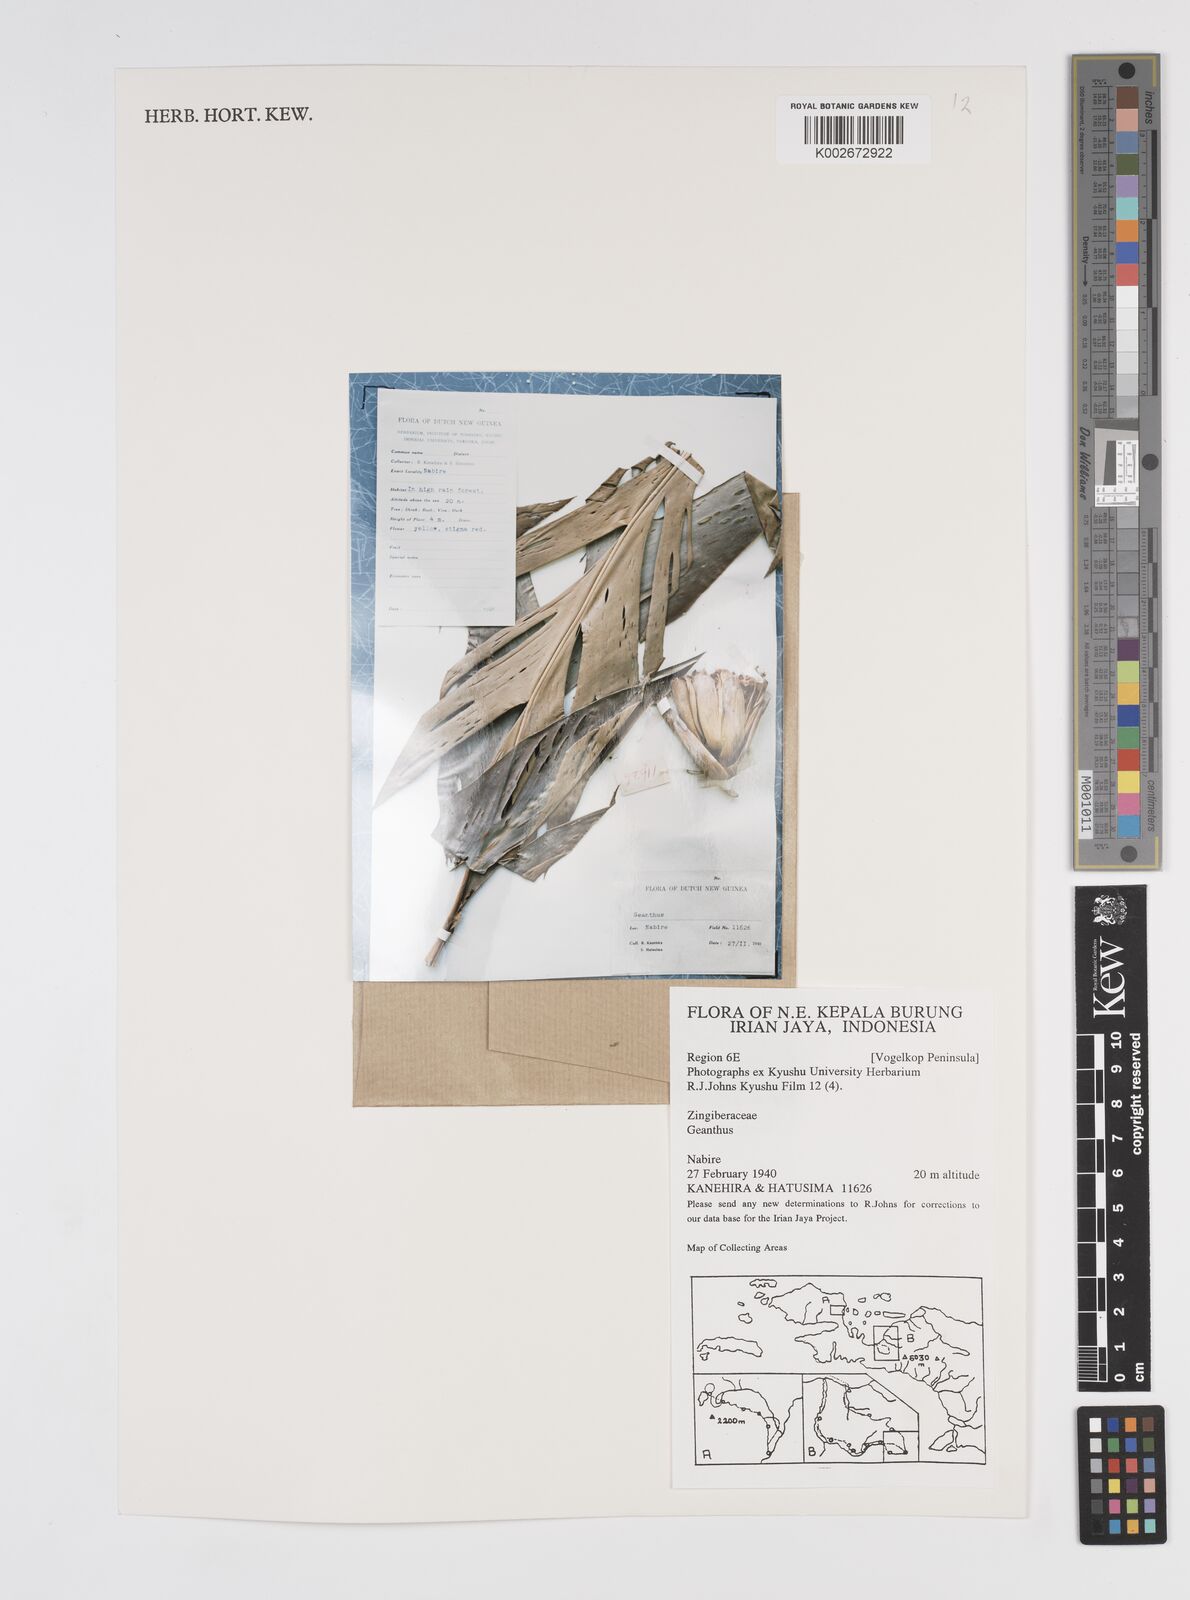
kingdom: Plantae
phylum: Tracheophyta
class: Liliopsida
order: Zingiberales
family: Zingiberaceae
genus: Etlingera
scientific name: Etlingera
